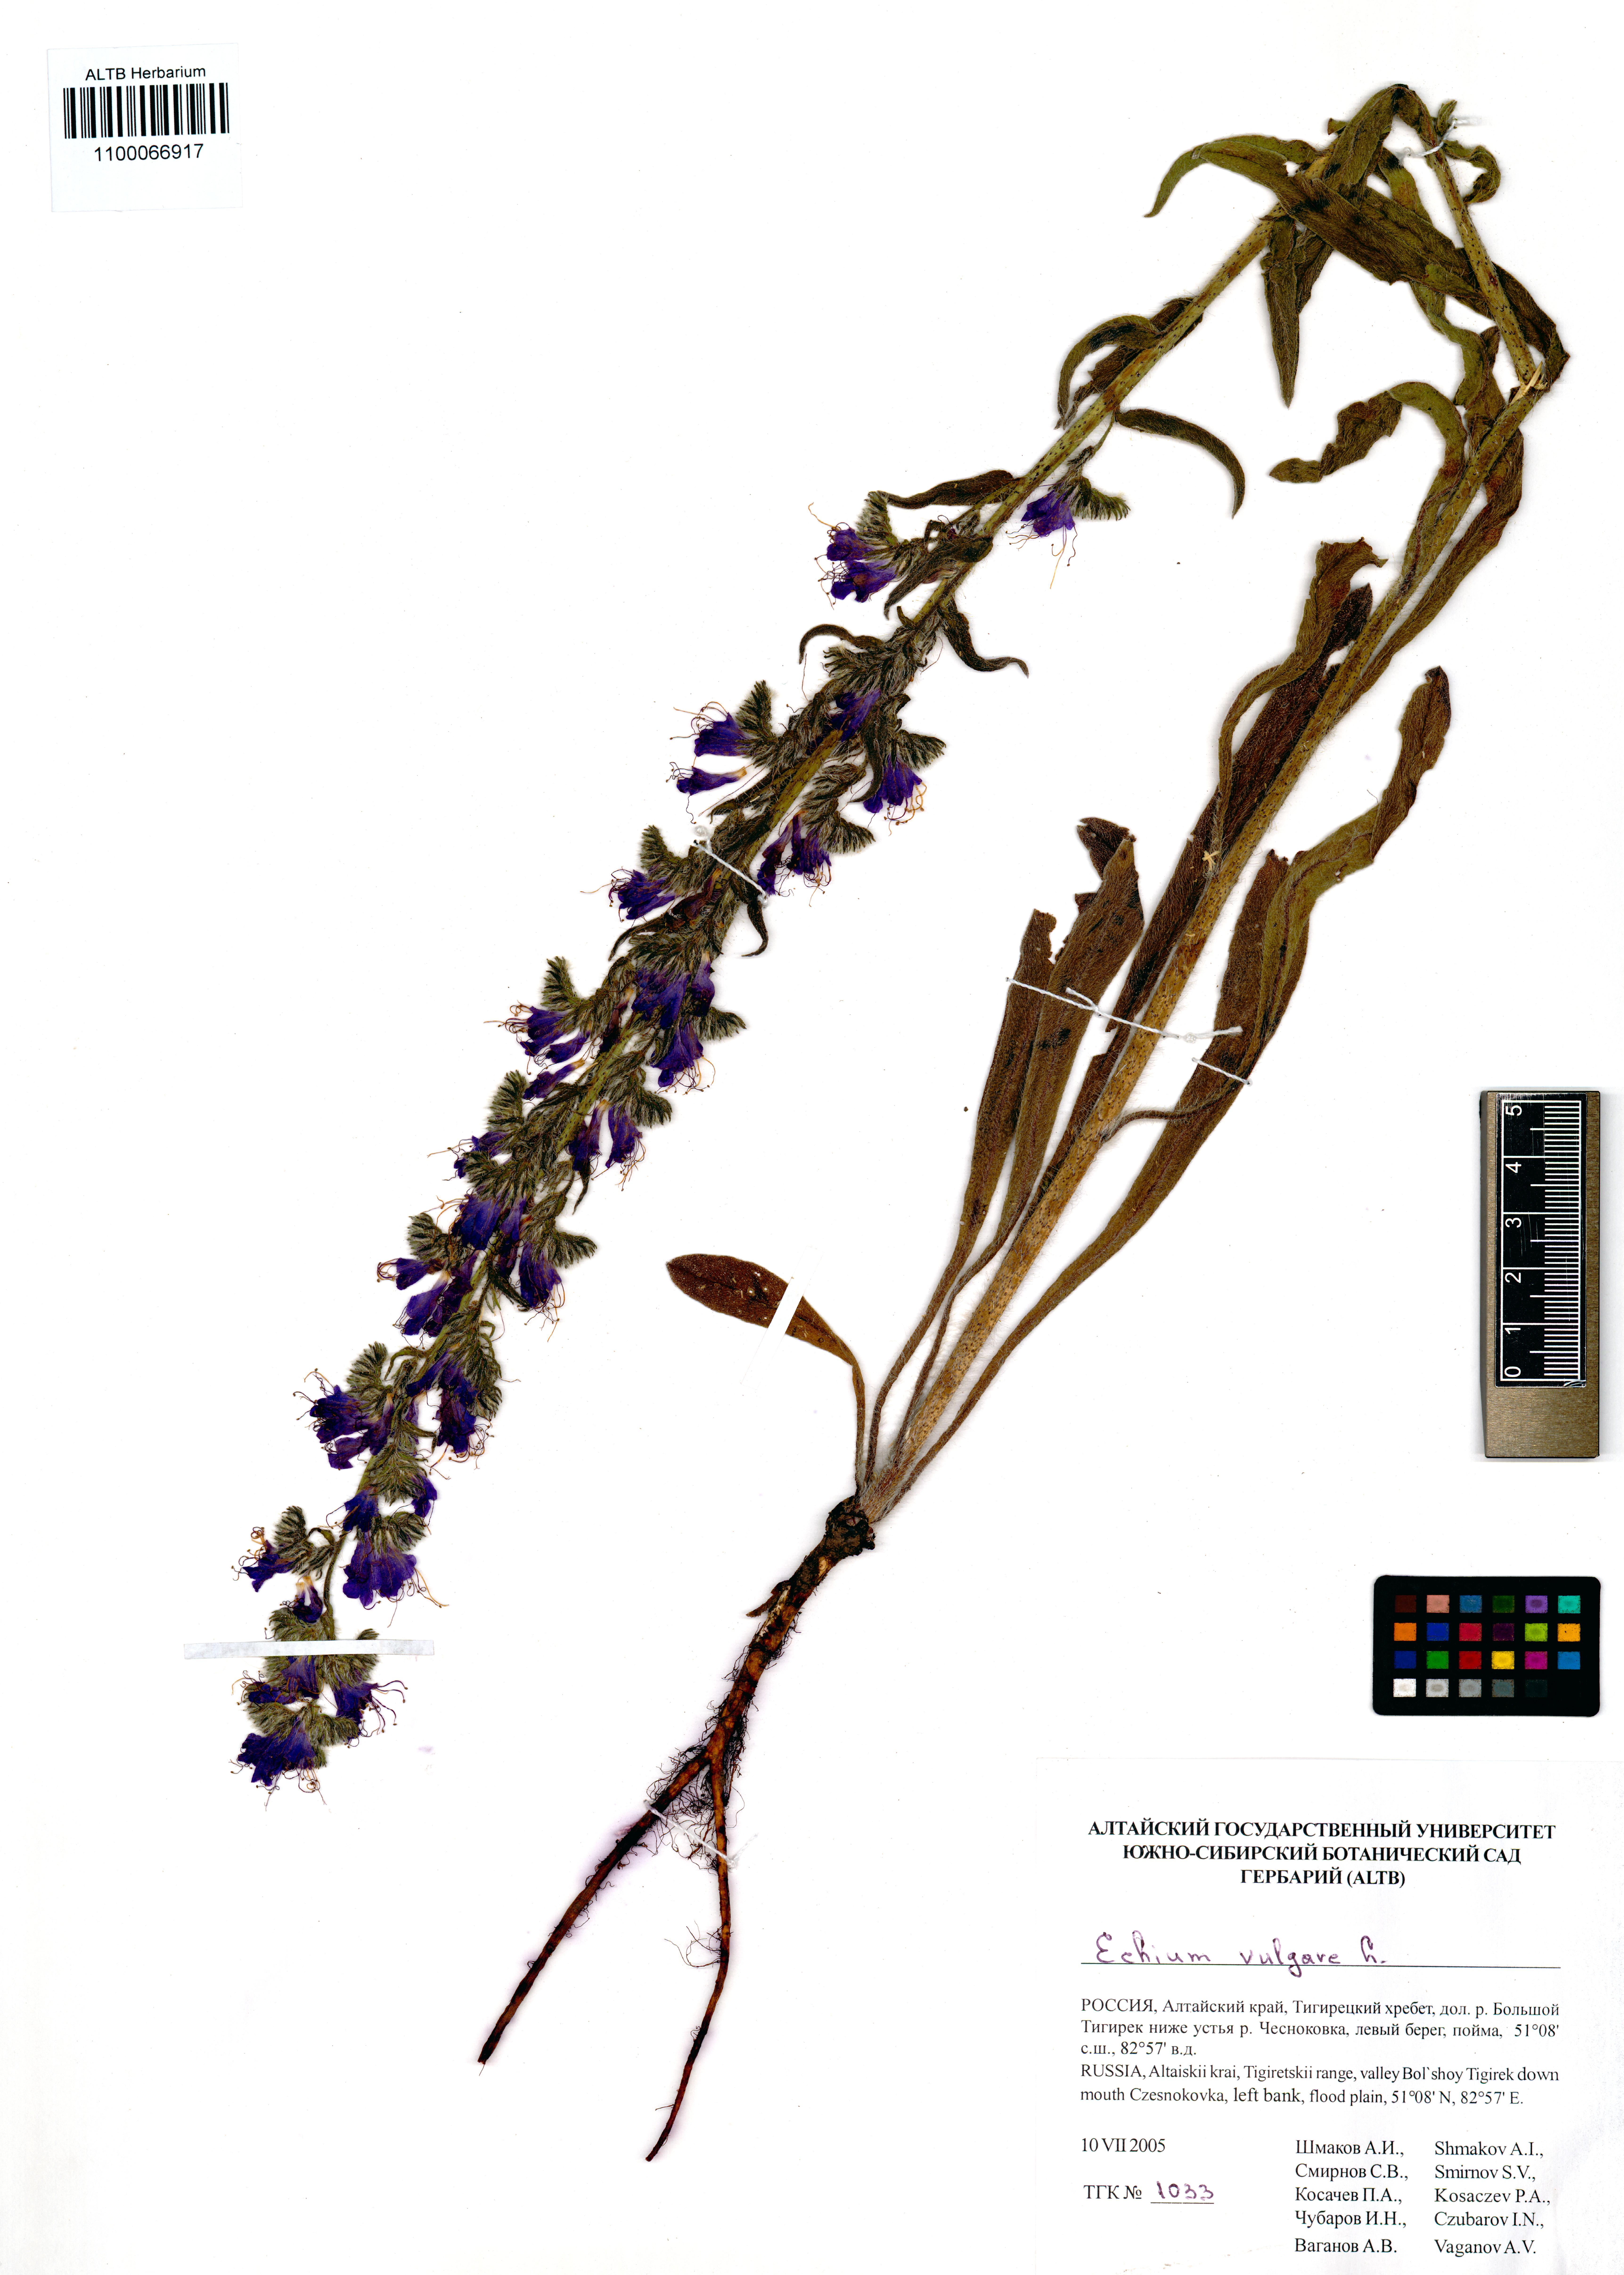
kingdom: Plantae
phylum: Tracheophyta
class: Magnoliopsida
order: Boraginales
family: Boraginaceae
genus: Echium
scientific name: Echium vulgare
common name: Common viper's bugloss
